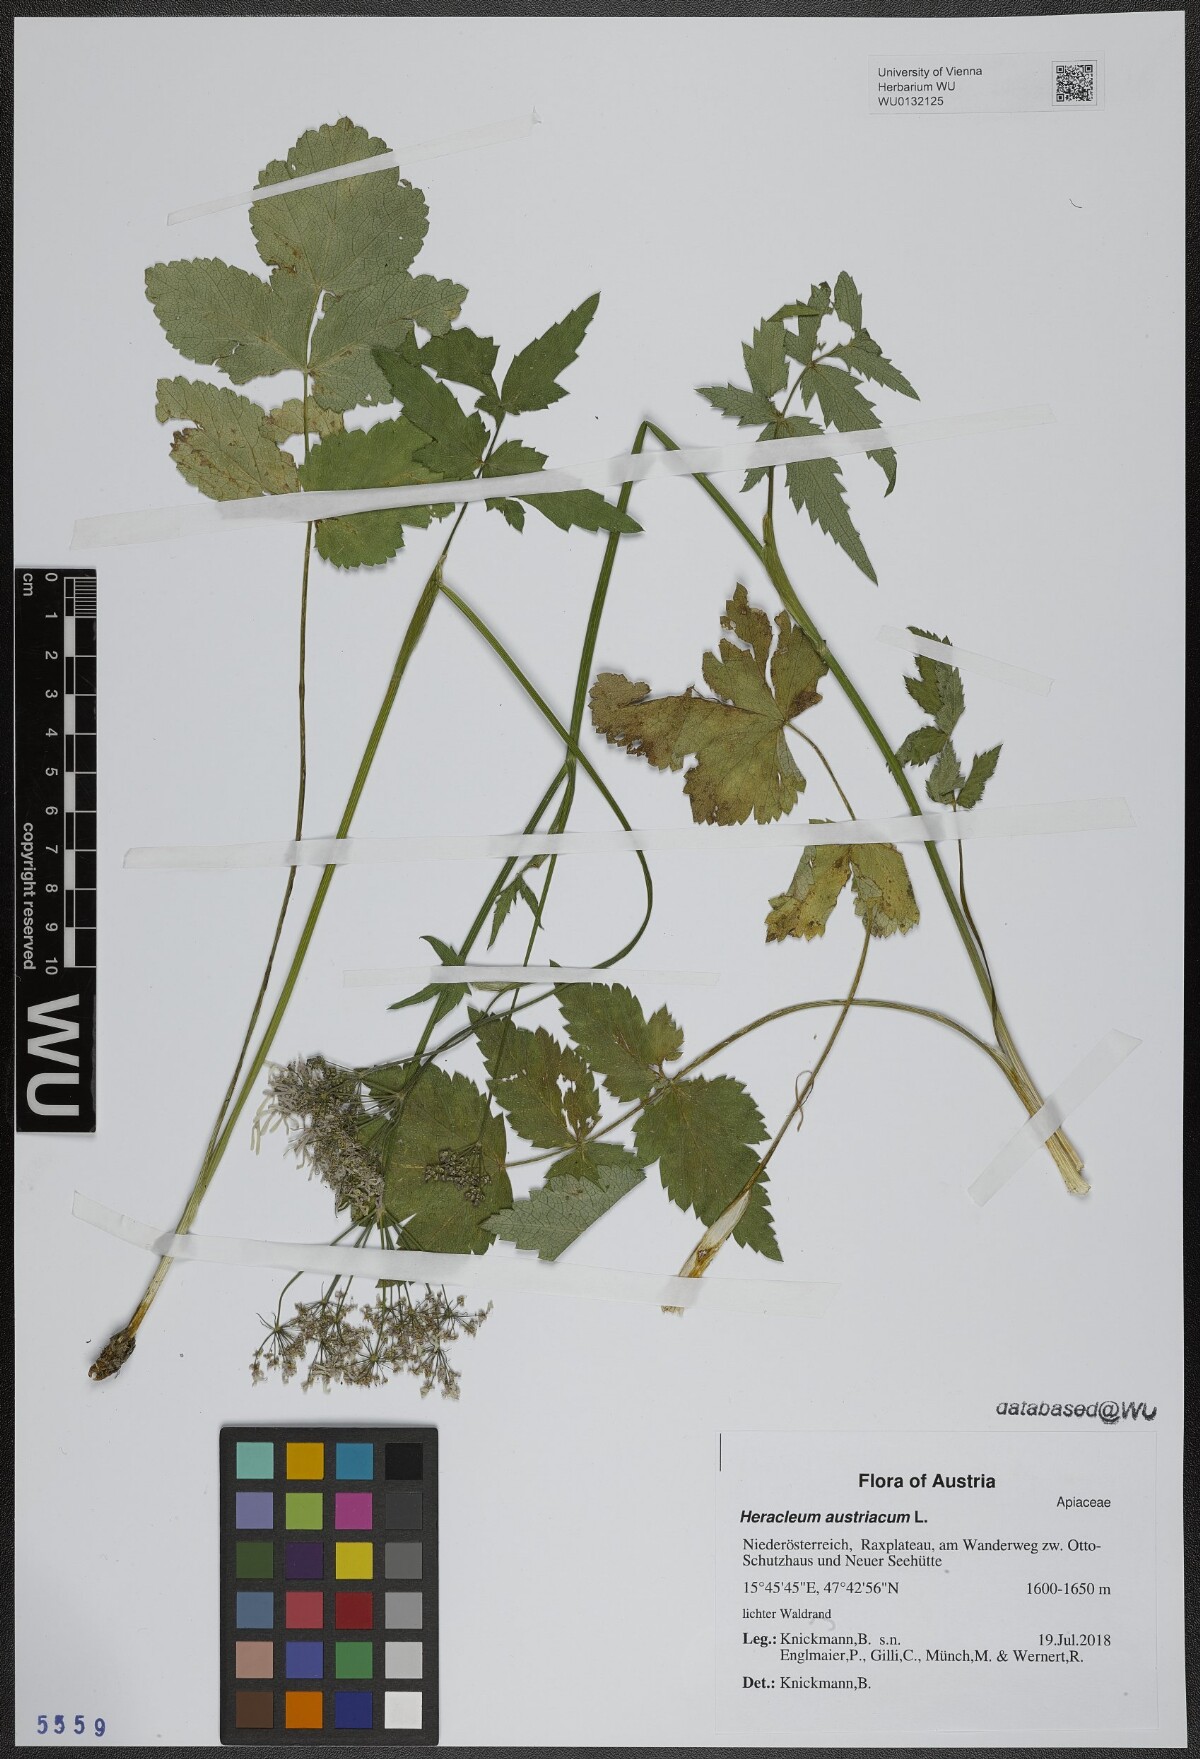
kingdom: Plantae
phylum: Tracheophyta
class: Magnoliopsida
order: Apiales
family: Apiaceae
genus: Heracleum
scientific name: Heracleum austriacum
